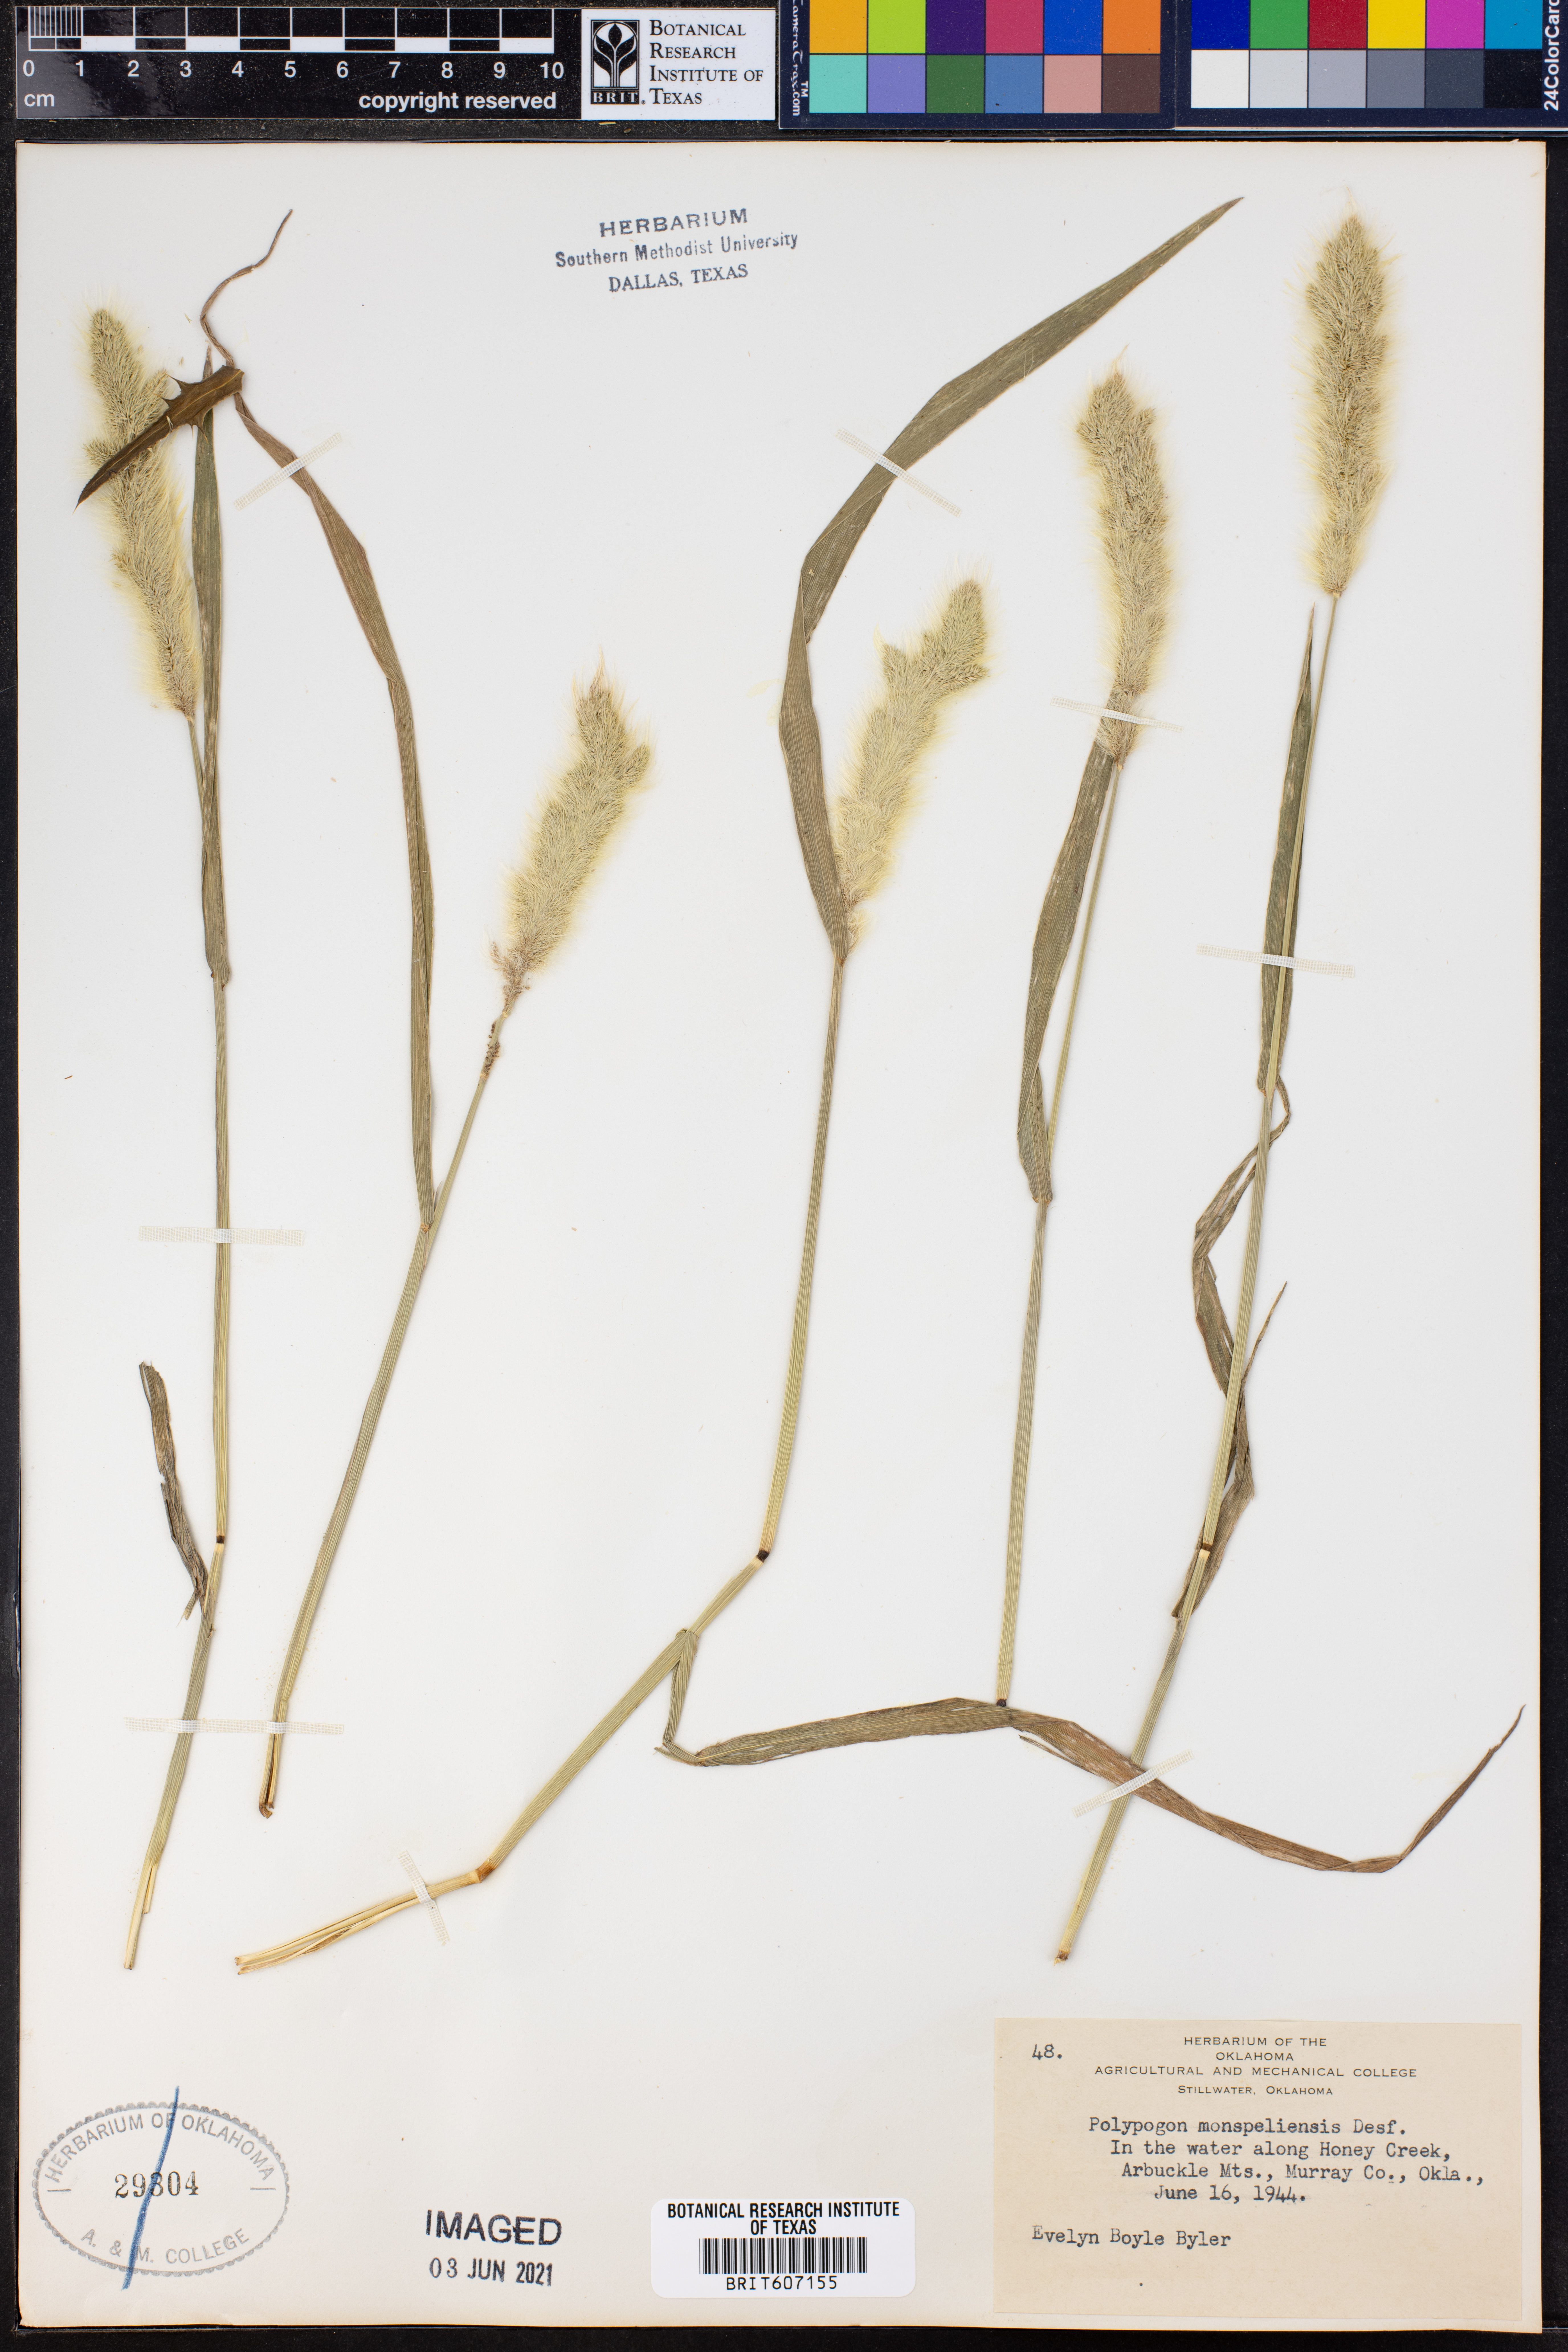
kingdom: Plantae
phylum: Tracheophyta
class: Magnoliopsida
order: Caryophyllales
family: Polygonaceae
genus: Polygonum
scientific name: Polygonum aviculare
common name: Prostrate knotweed
